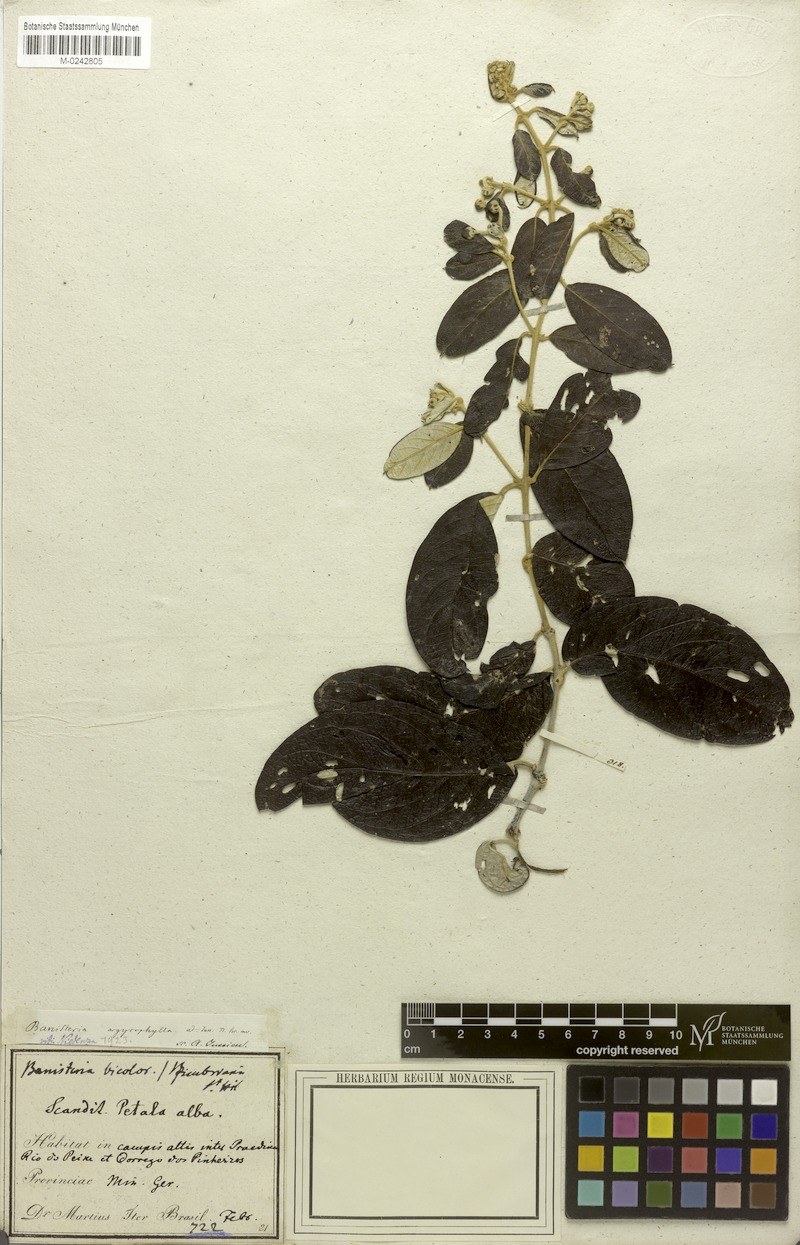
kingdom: Plantae
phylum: Tracheophyta
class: Magnoliopsida
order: Malpighiales
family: Malpighiaceae
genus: Banisteriopsis
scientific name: Banisteriopsis argyrophylla
